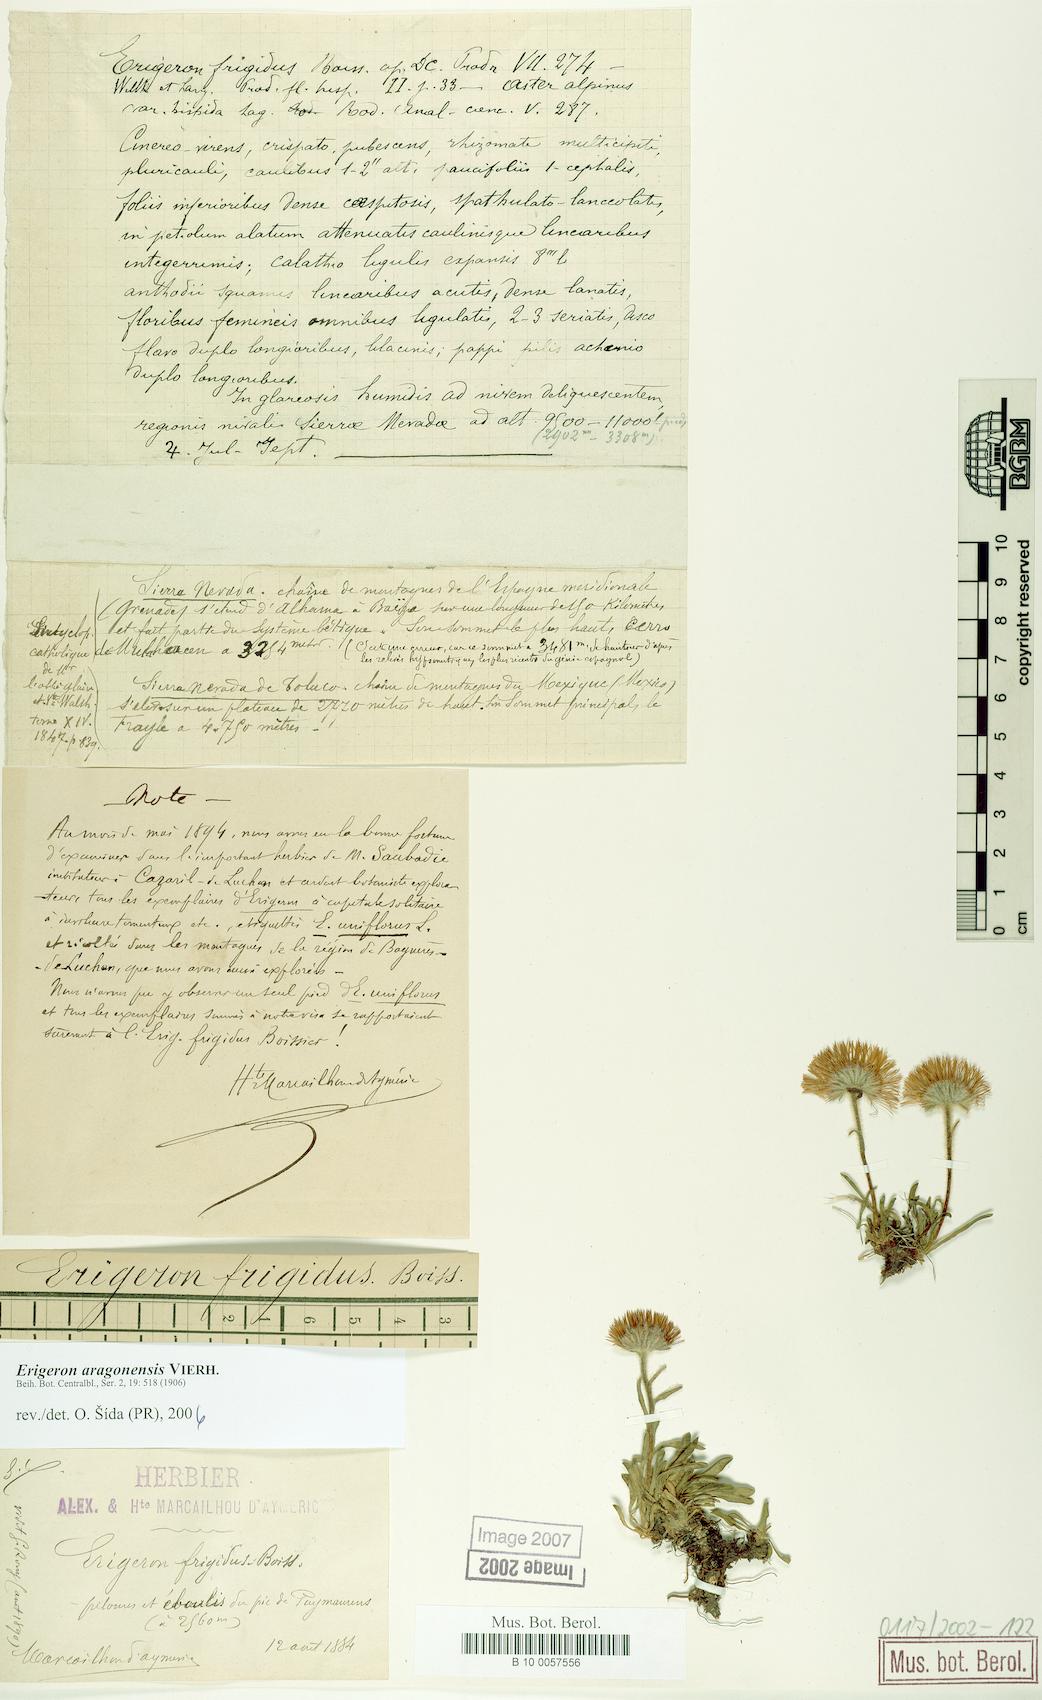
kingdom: Plantae
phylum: Tracheophyta
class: Magnoliopsida
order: Asterales
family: Asteraceae
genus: Erigeron
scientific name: Erigeron aragonensis
